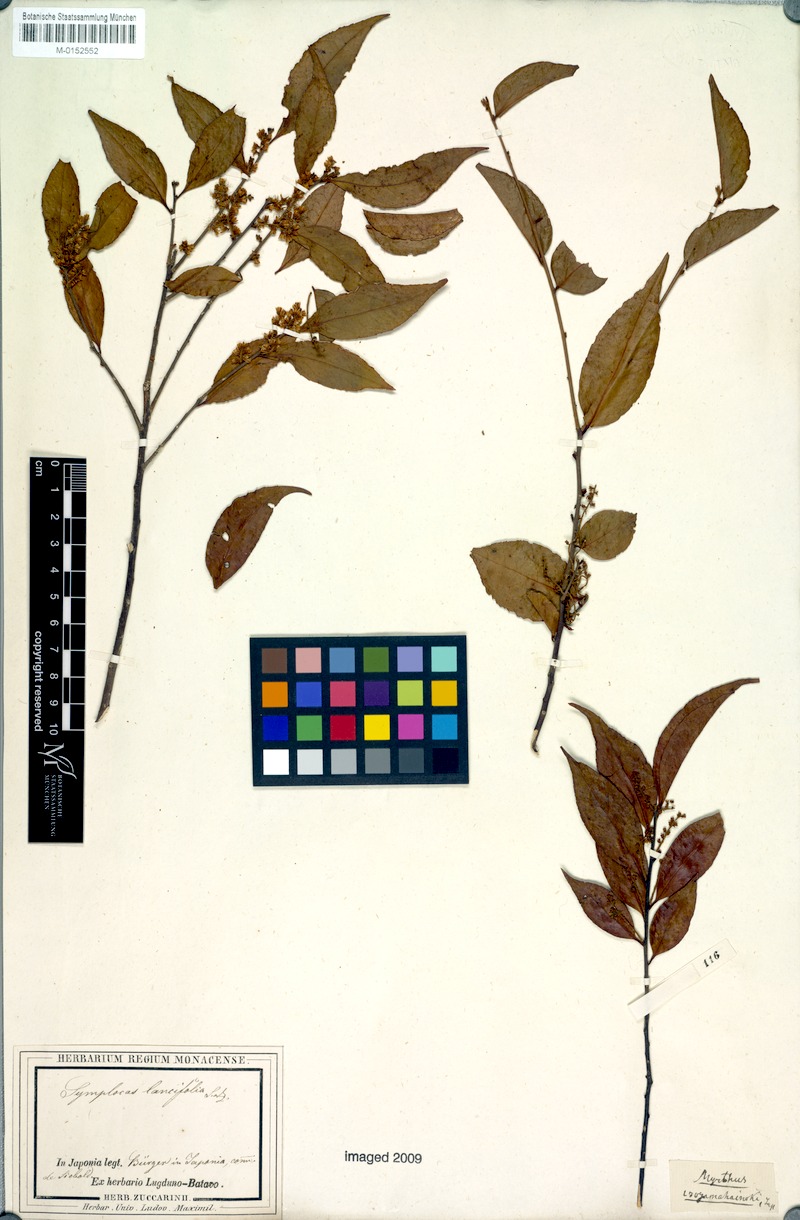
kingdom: Plantae
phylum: Tracheophyta
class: Magnoliopsida
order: Ericales
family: Symplocaceae
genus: Symplocos
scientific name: Symplocos lancifolia
